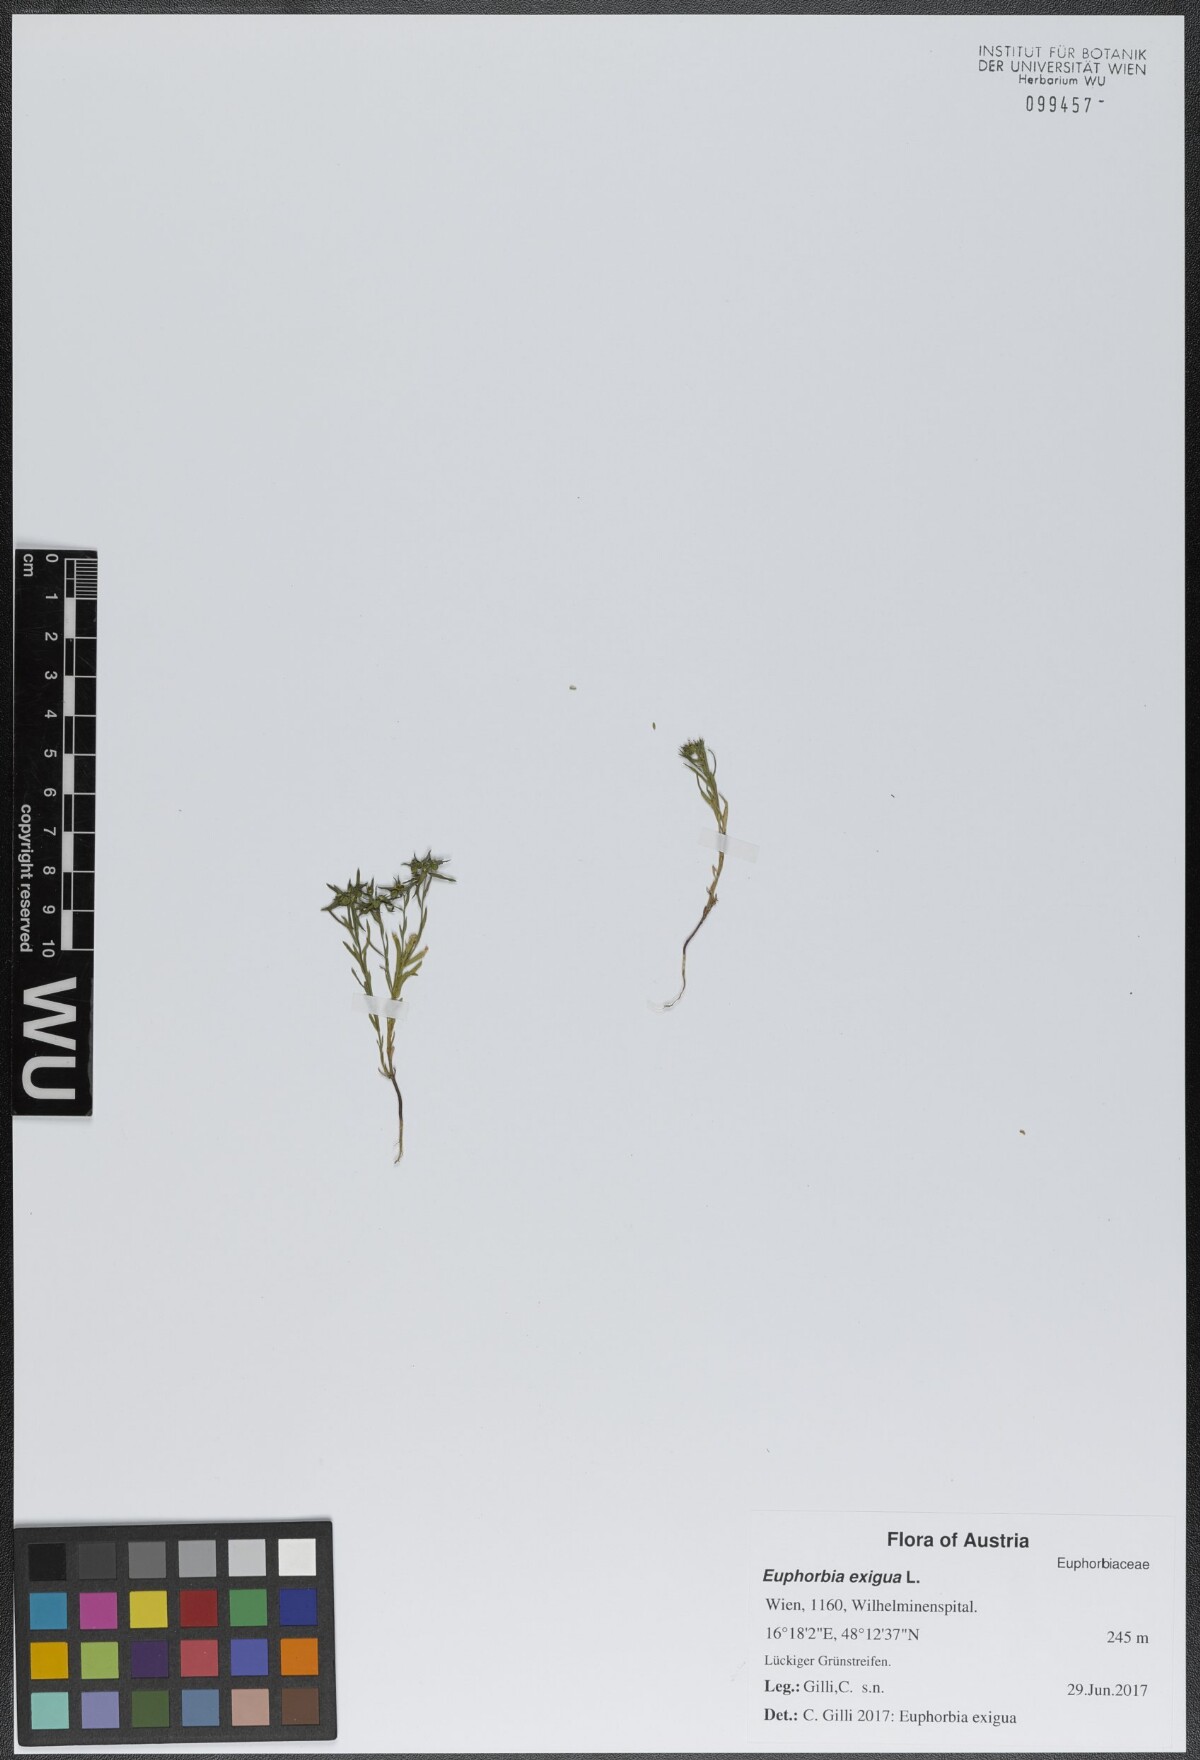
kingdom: Plantae
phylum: Tracheophyta
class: Magnoliopsida
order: Malpighiales
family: Euphorbiaceae
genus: Euphorbia
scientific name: Euphorbia exigua
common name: Dwarf spurge
